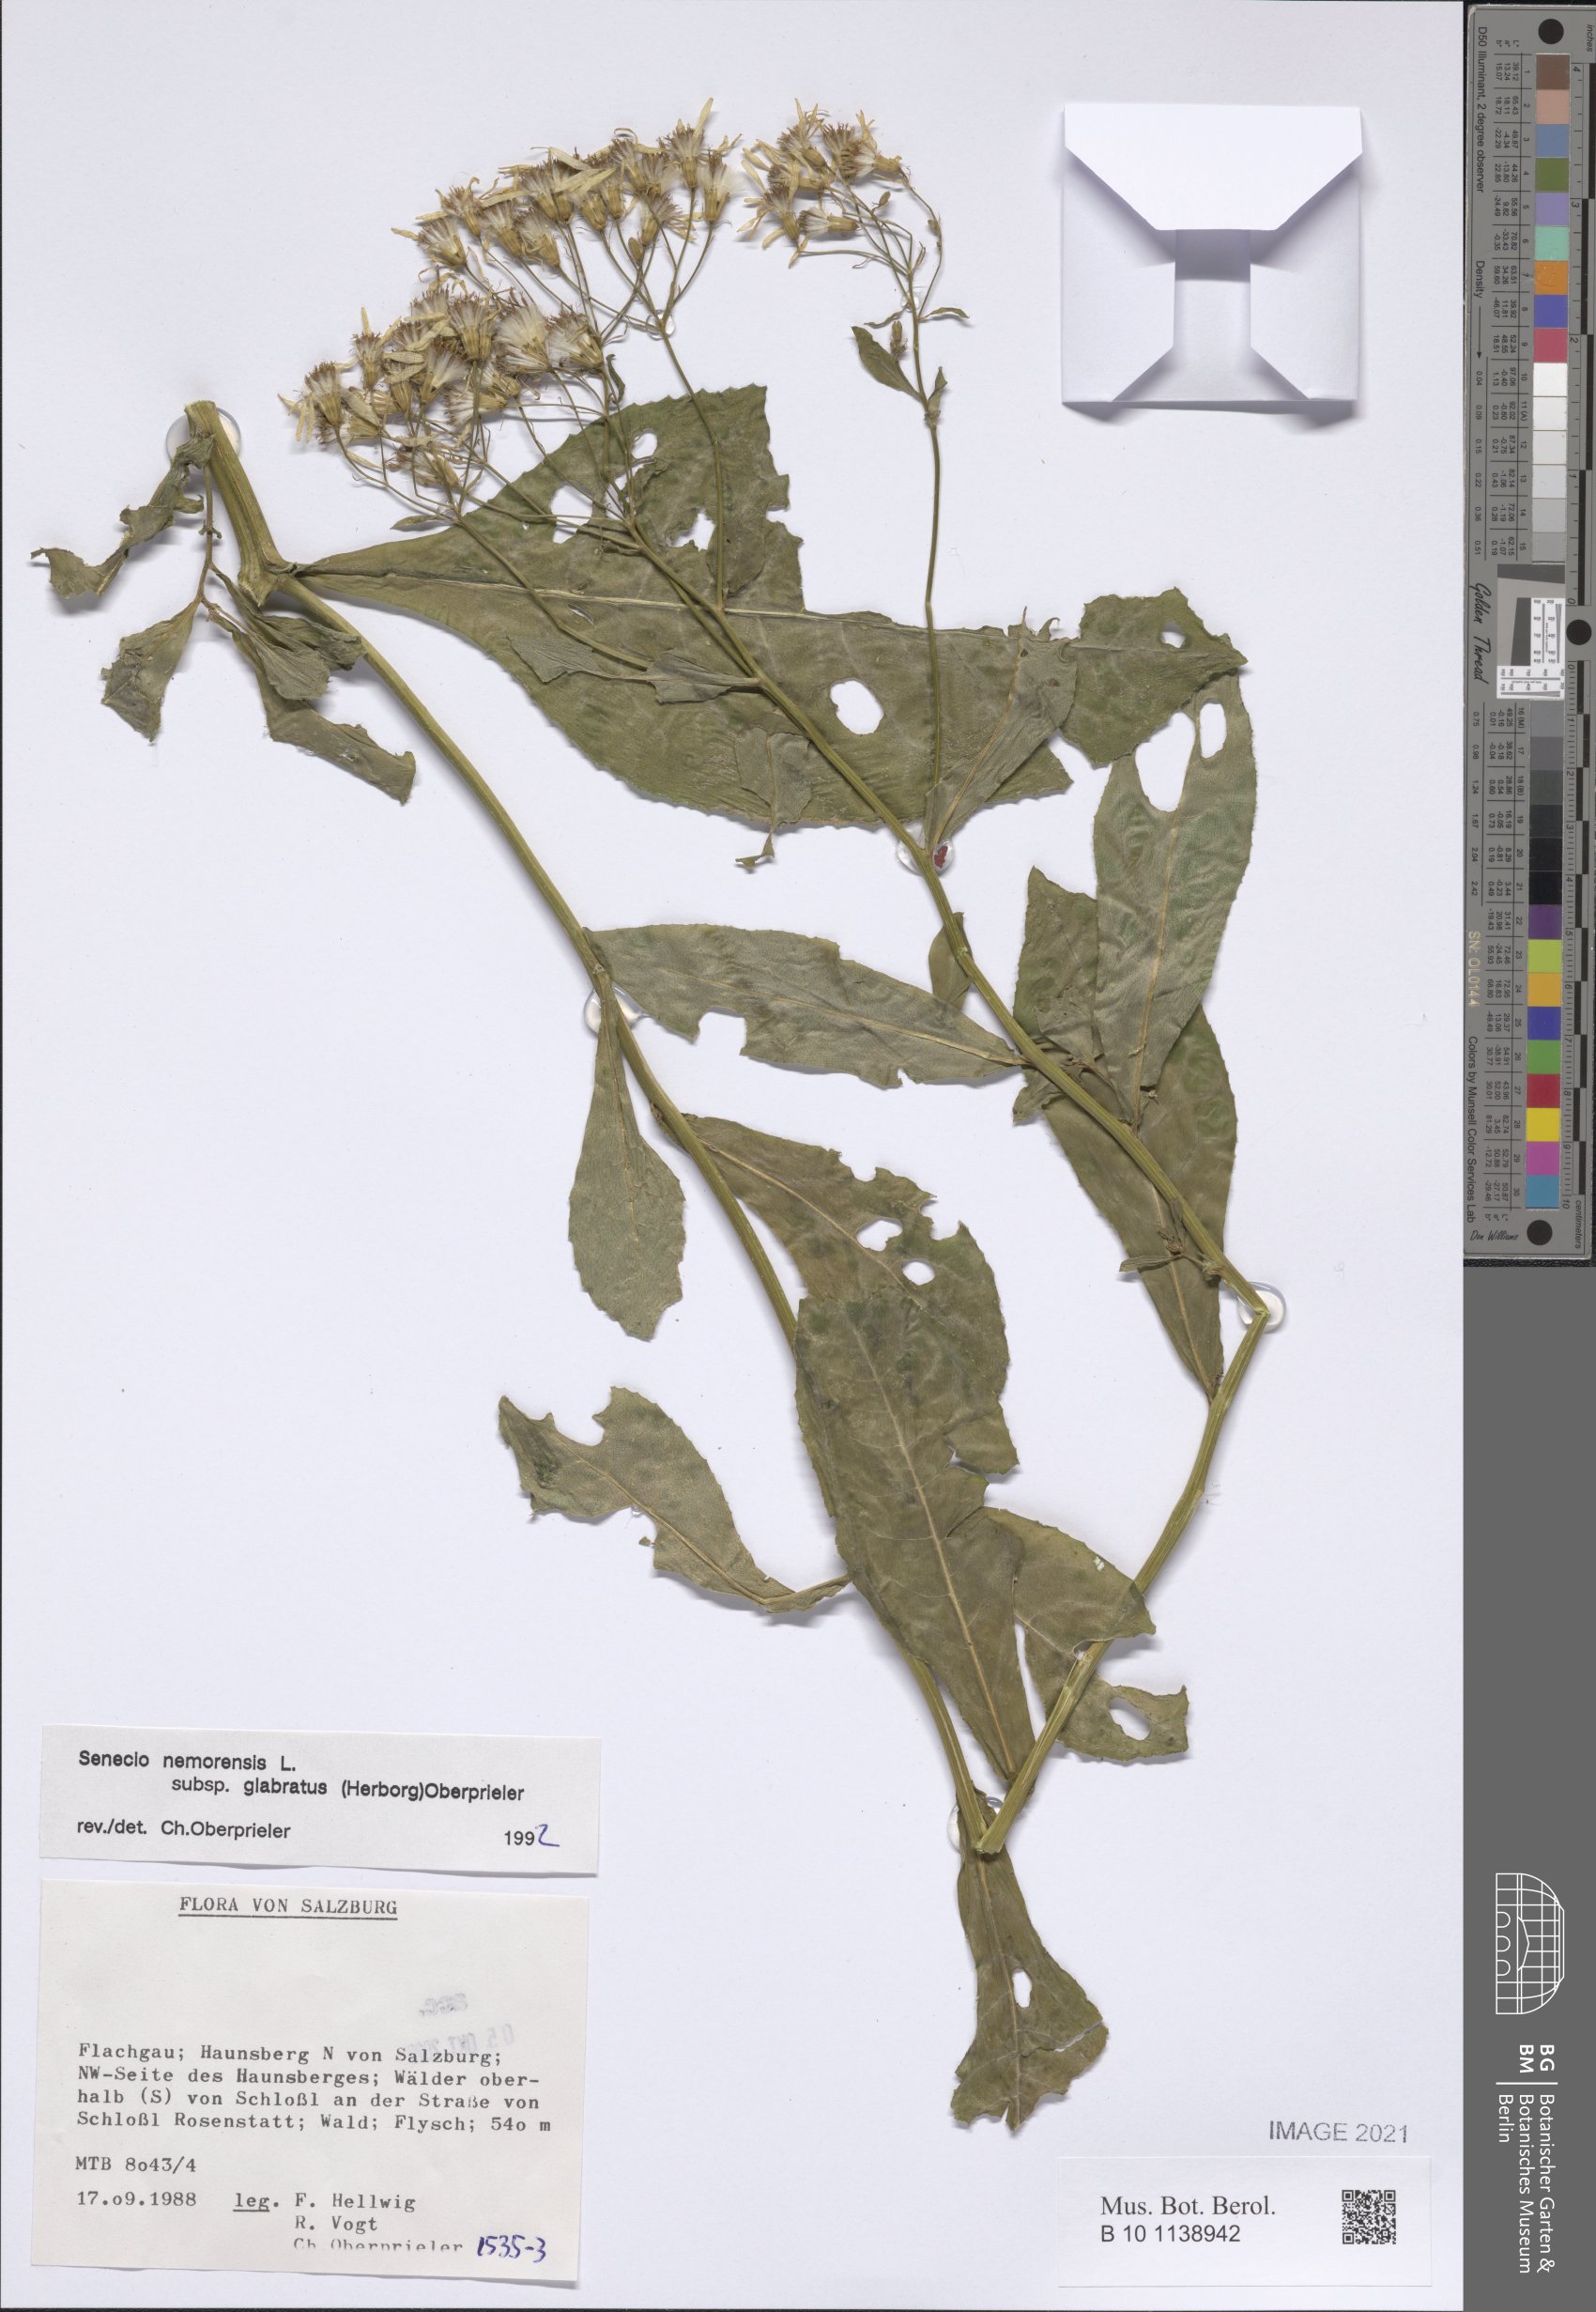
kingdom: Plantae
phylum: Tracheophyta
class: Magnoliopsida
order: Asterales
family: Asteraceae
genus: Senecio
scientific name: Senecio germanicus
